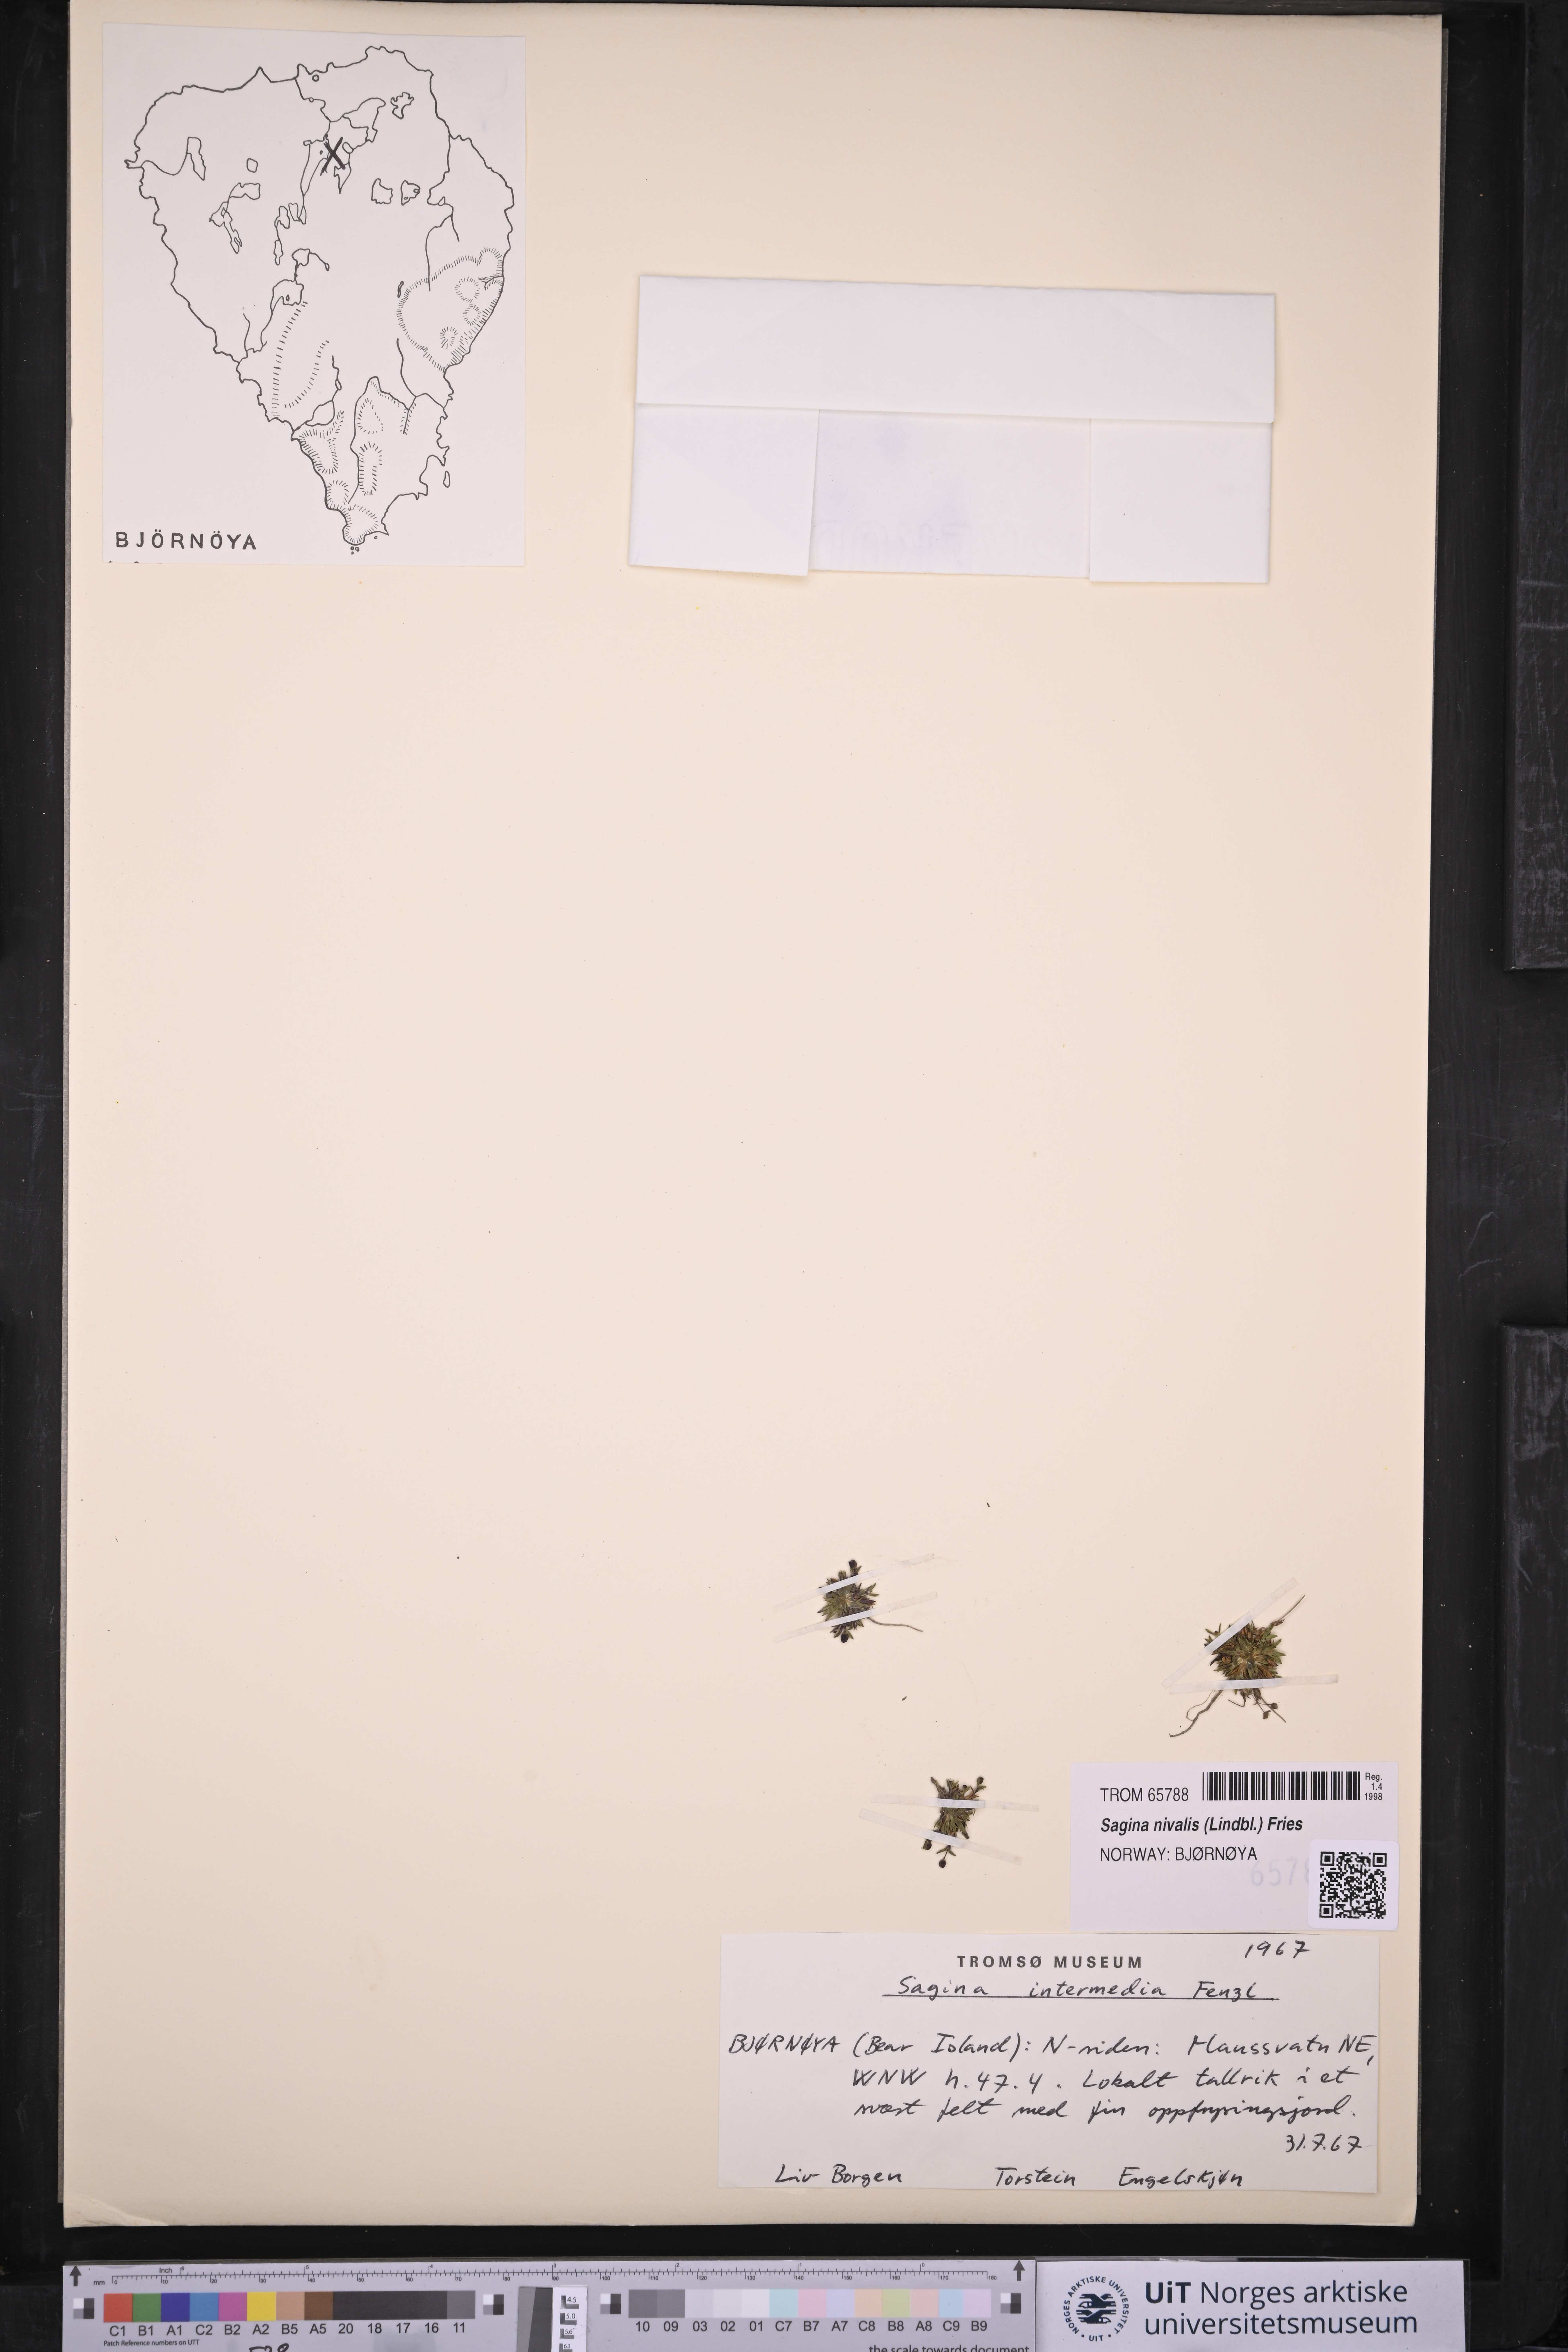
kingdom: Plantae
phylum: Tracheophyta
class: Magnoliopsida
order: Caryophyllales
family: Caryophyllaceae
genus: Sagina
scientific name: Sagina nivalis
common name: Snow pearlwort
